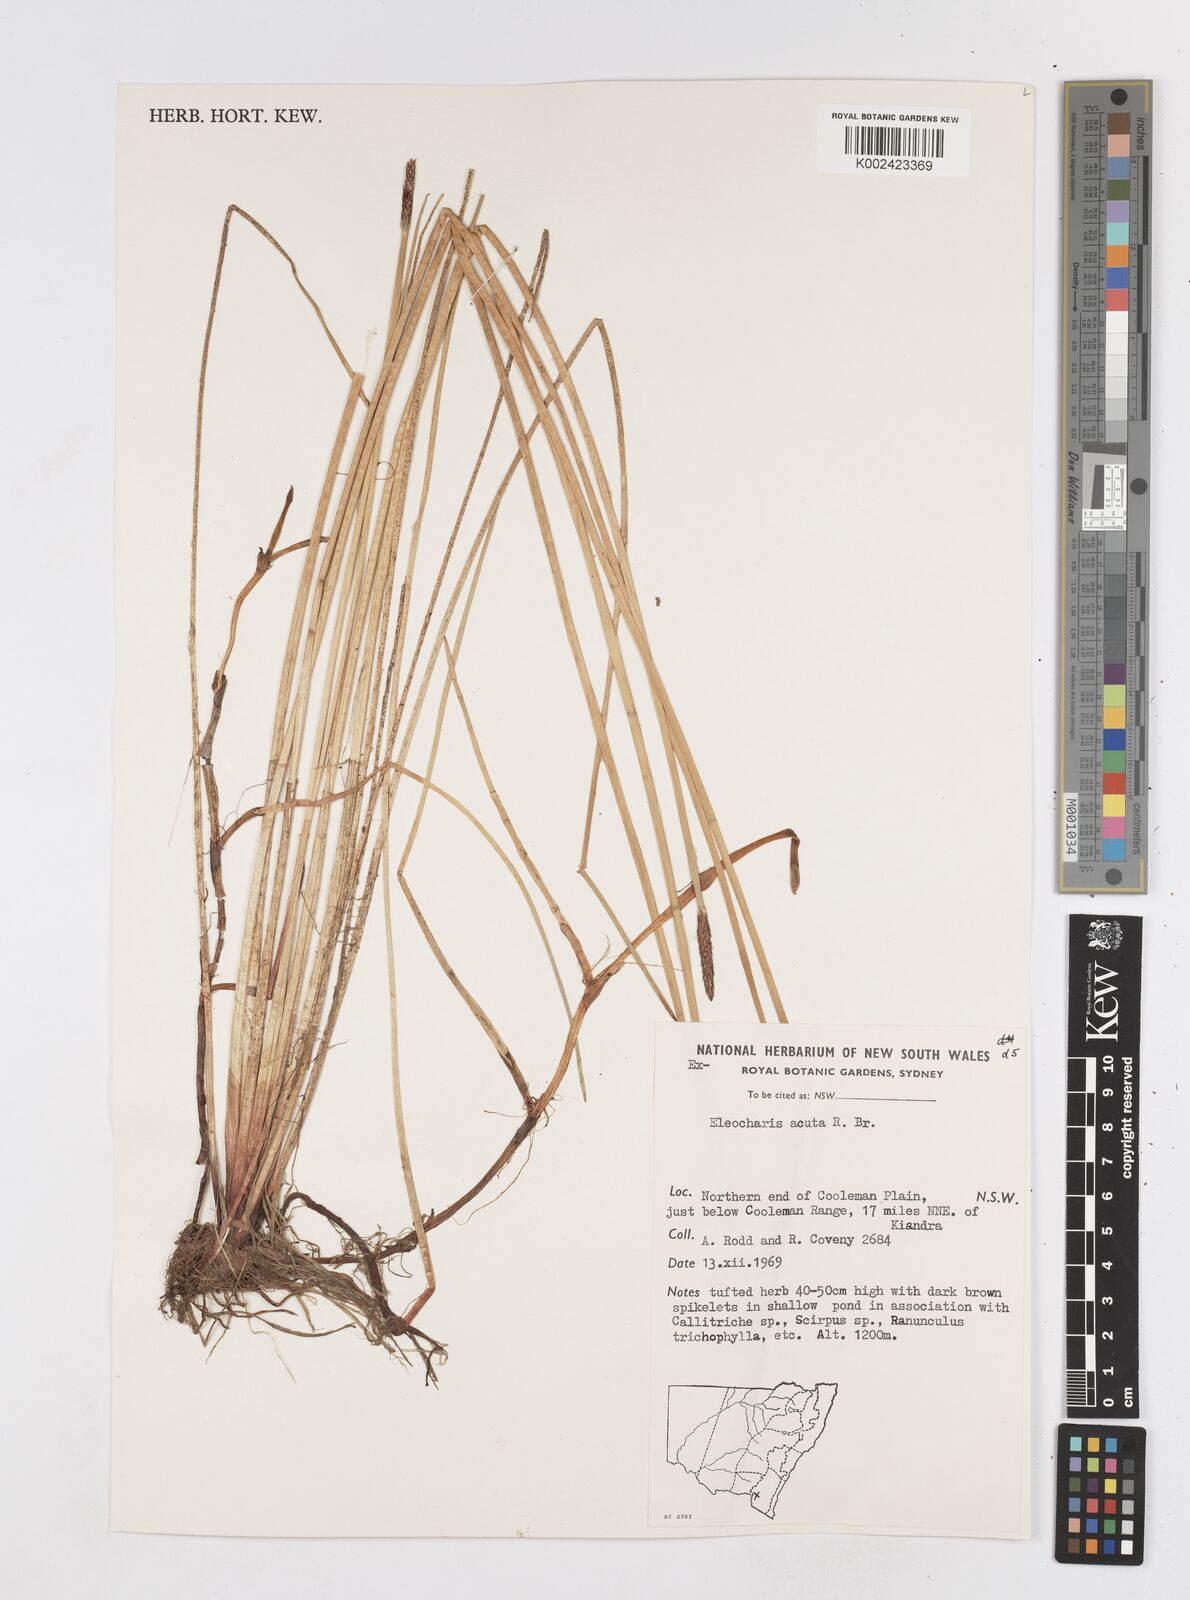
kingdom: Plantae
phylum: Tracheophyta
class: Liliopsida
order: Poales
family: Cyperaceae
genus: Eleocharis
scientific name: Eleocharis acuta
